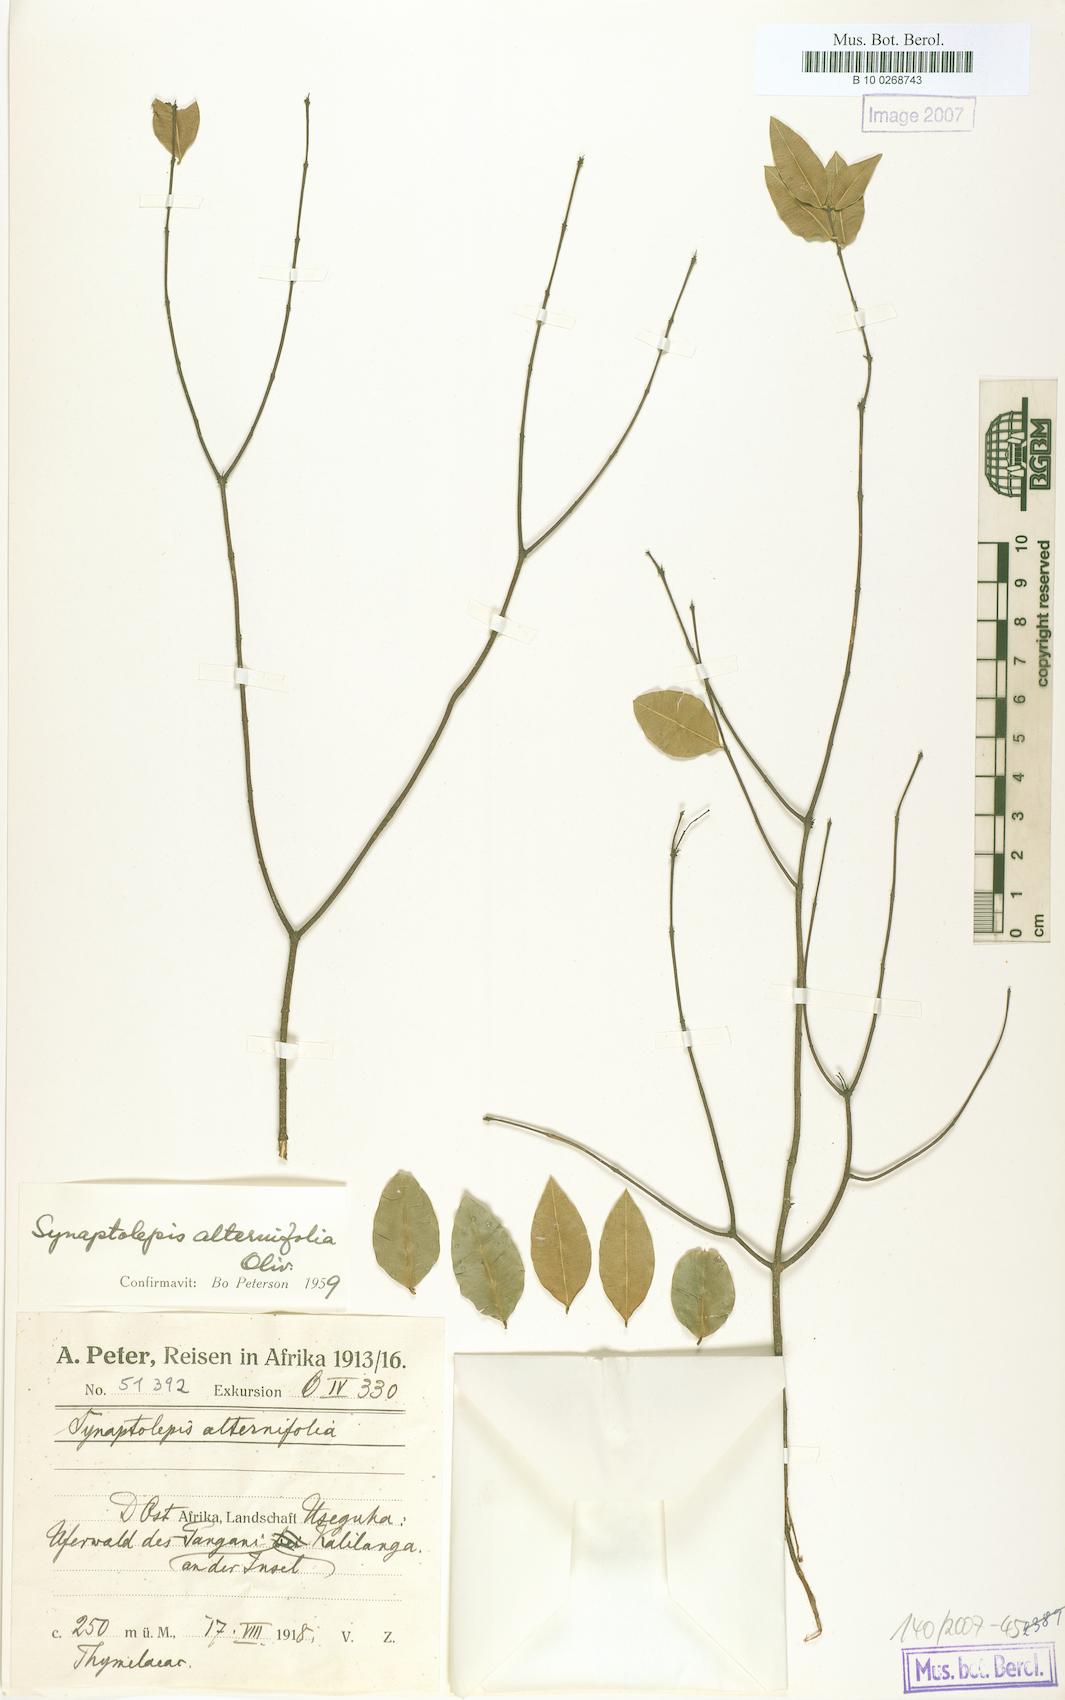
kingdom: Plantae
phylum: Tracheophyta
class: Magnoliopsida
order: Malvales
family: Thymelaeaceae
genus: Synaptolepis
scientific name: Synaptolepis alternifolia
